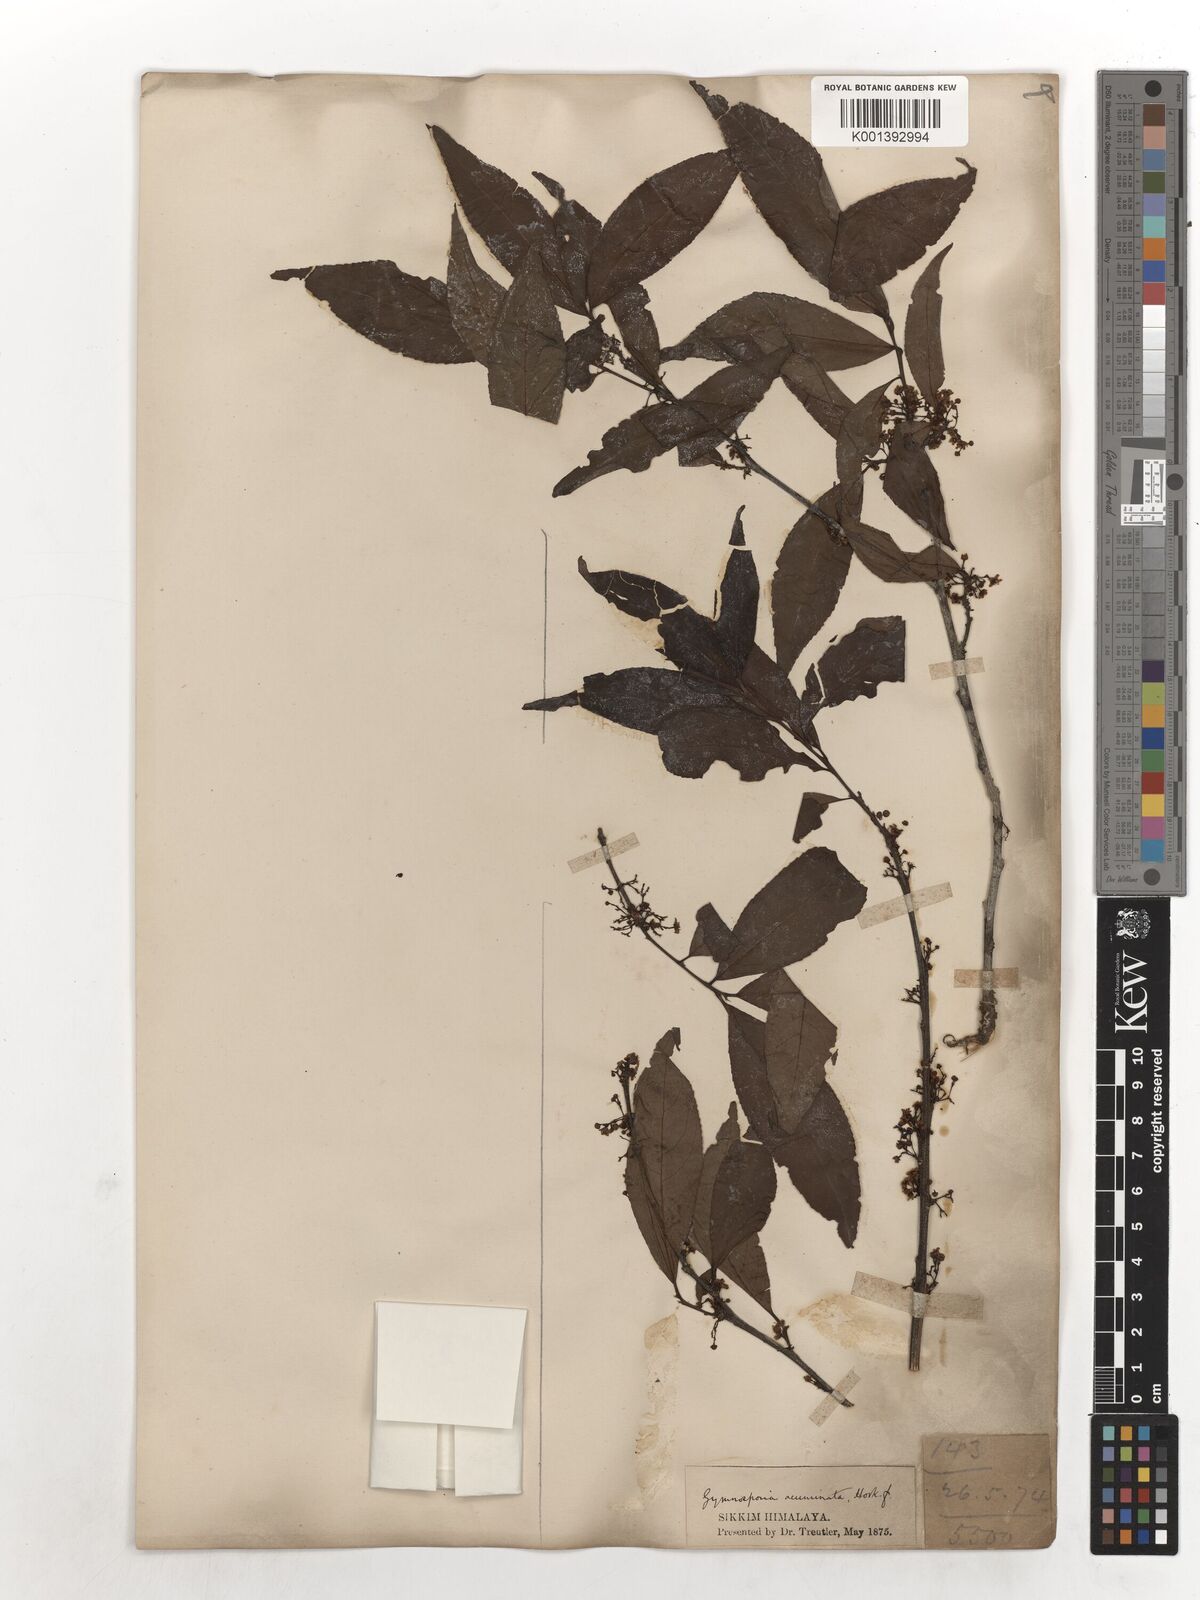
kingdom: Plantae
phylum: Tracheophyta
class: Magnoliopsida
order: Celastrales
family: Celastraceae
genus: Gymnosporia
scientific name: Gymnosporia oxyphylla
